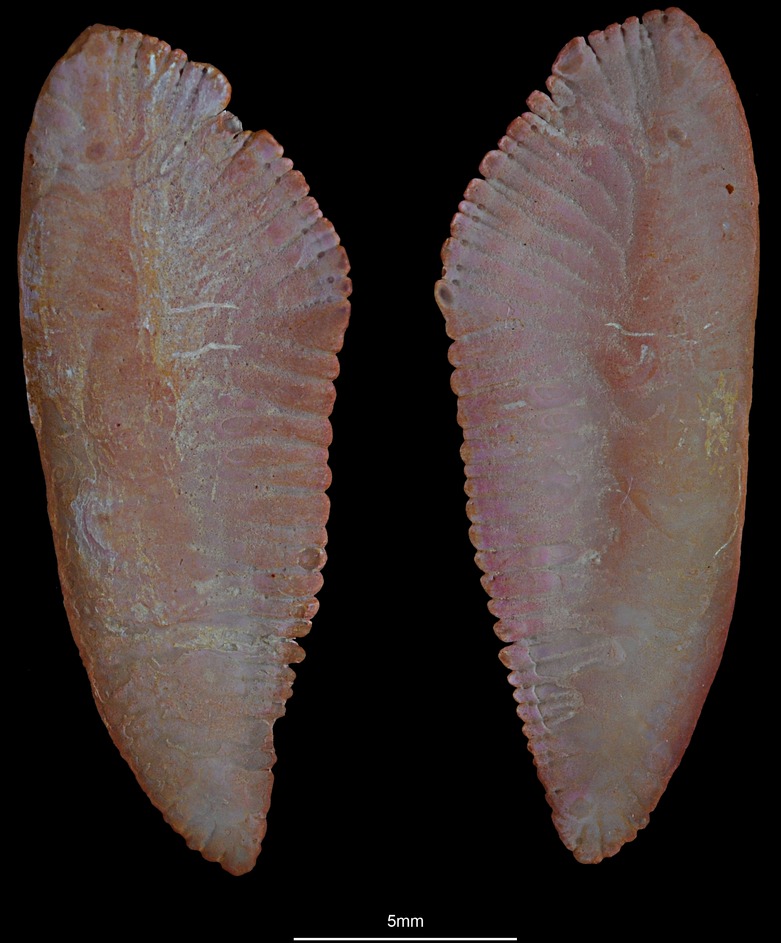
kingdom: Animalia
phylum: Chordata
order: Gadiformes
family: Gadidae
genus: Micromesistius
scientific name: Micromesistius poutassou
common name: Blue whiting
